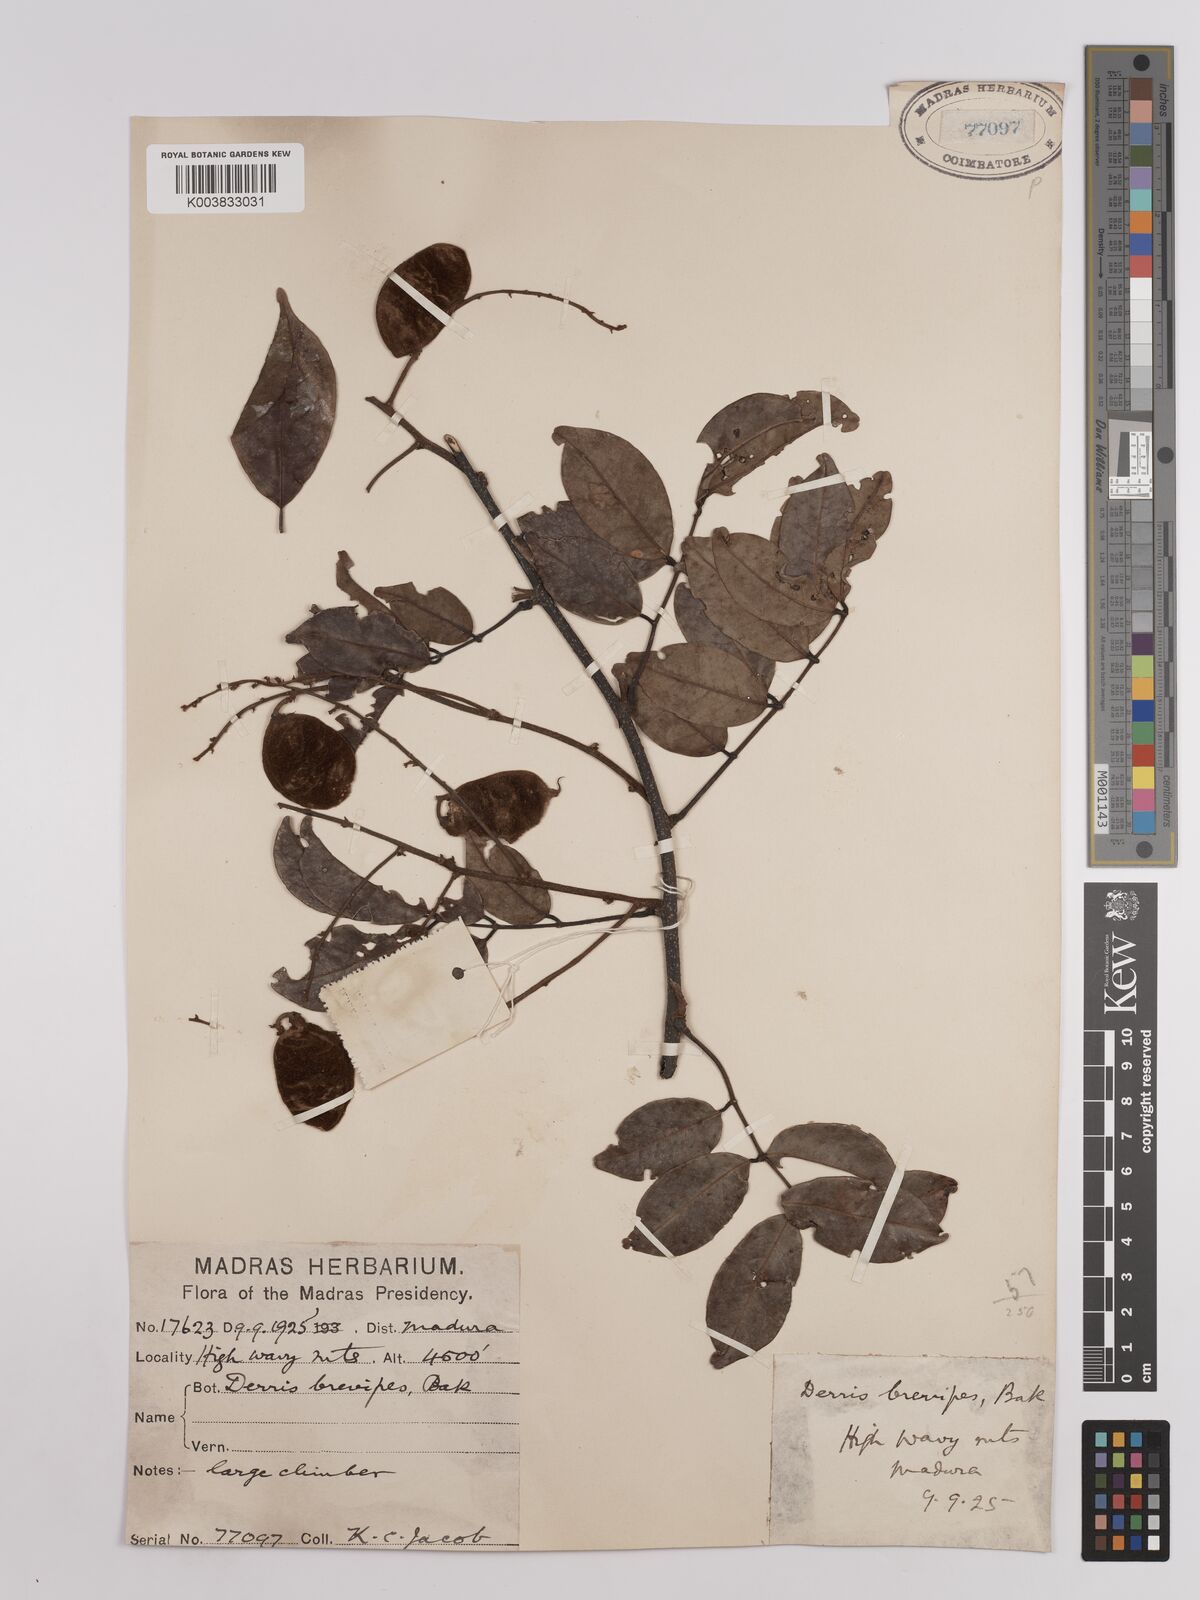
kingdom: Plantae
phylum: Tracheophyta
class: Magnoliopsida
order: Fabales
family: Fabaceae
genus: Derris
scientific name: Derris brevipes
